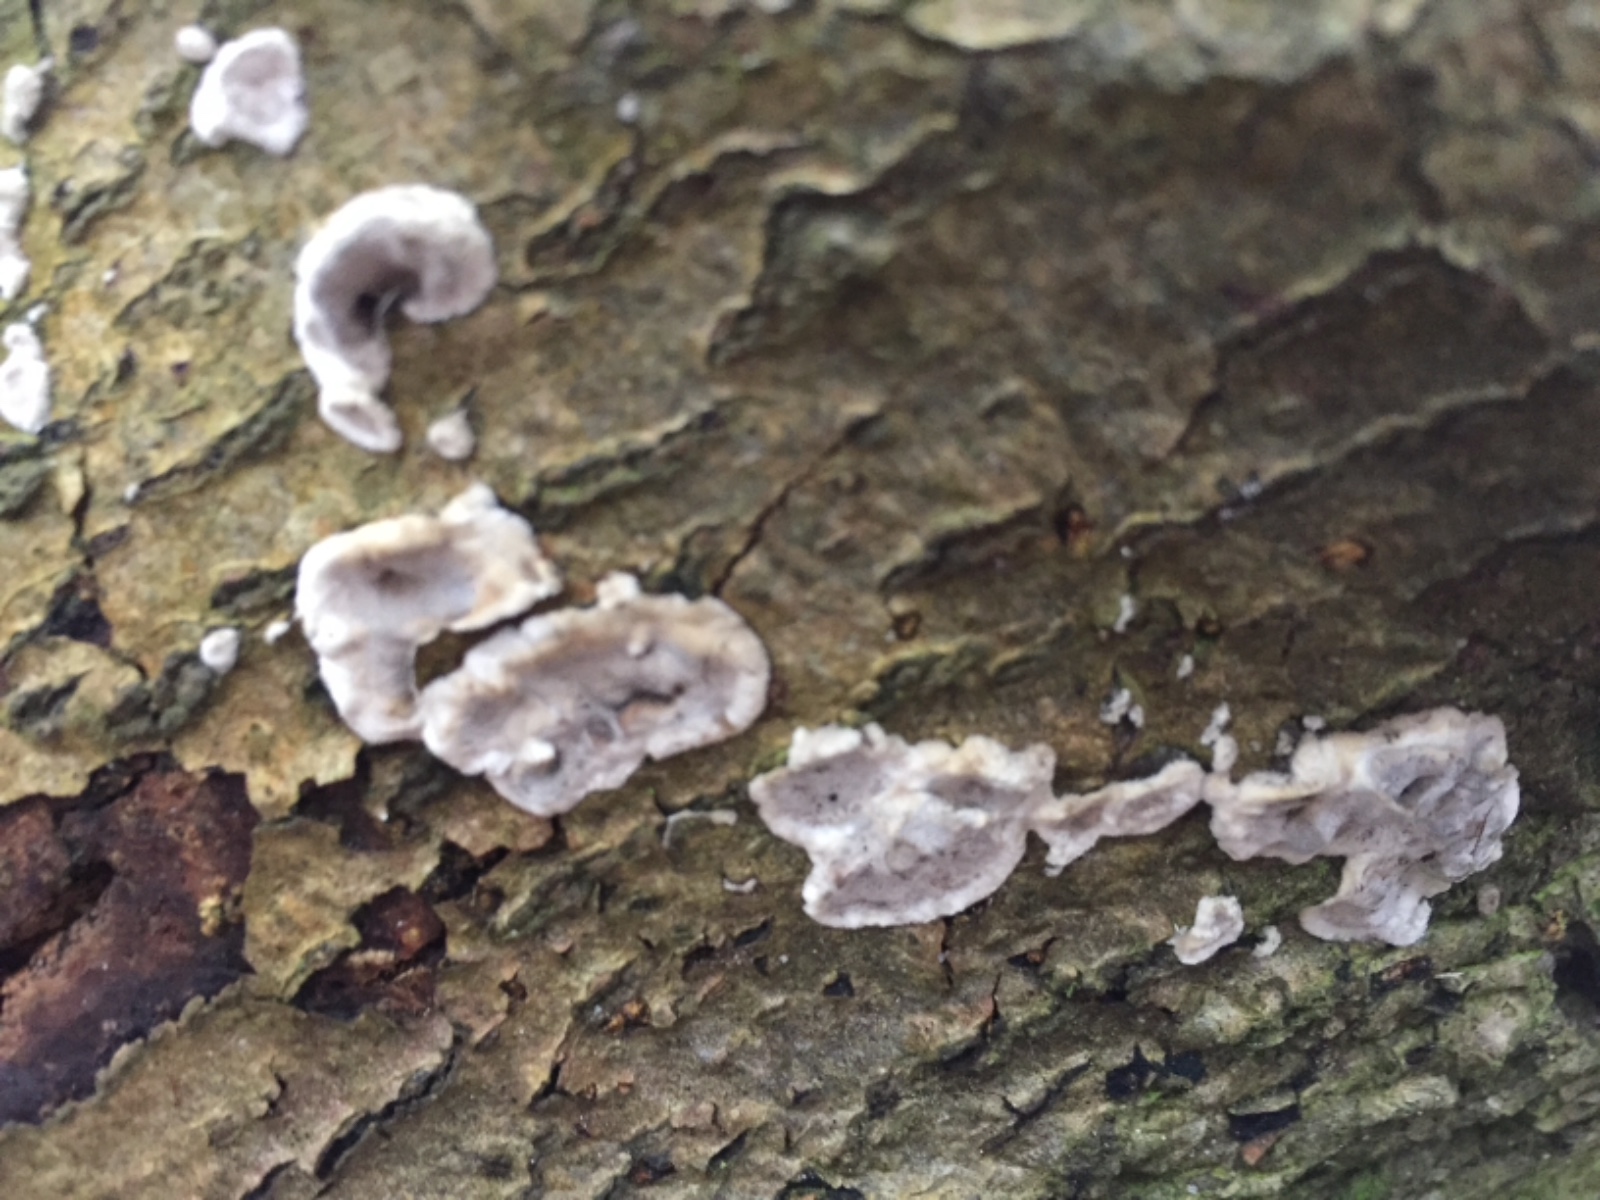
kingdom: Fungi
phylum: Basidiomycota
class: Agaricomycetes
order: Polyporales
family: Phanerochaetaceae
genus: Bjerkandera
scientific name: Bjerkandera adusta
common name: sveden sodporesvamp
